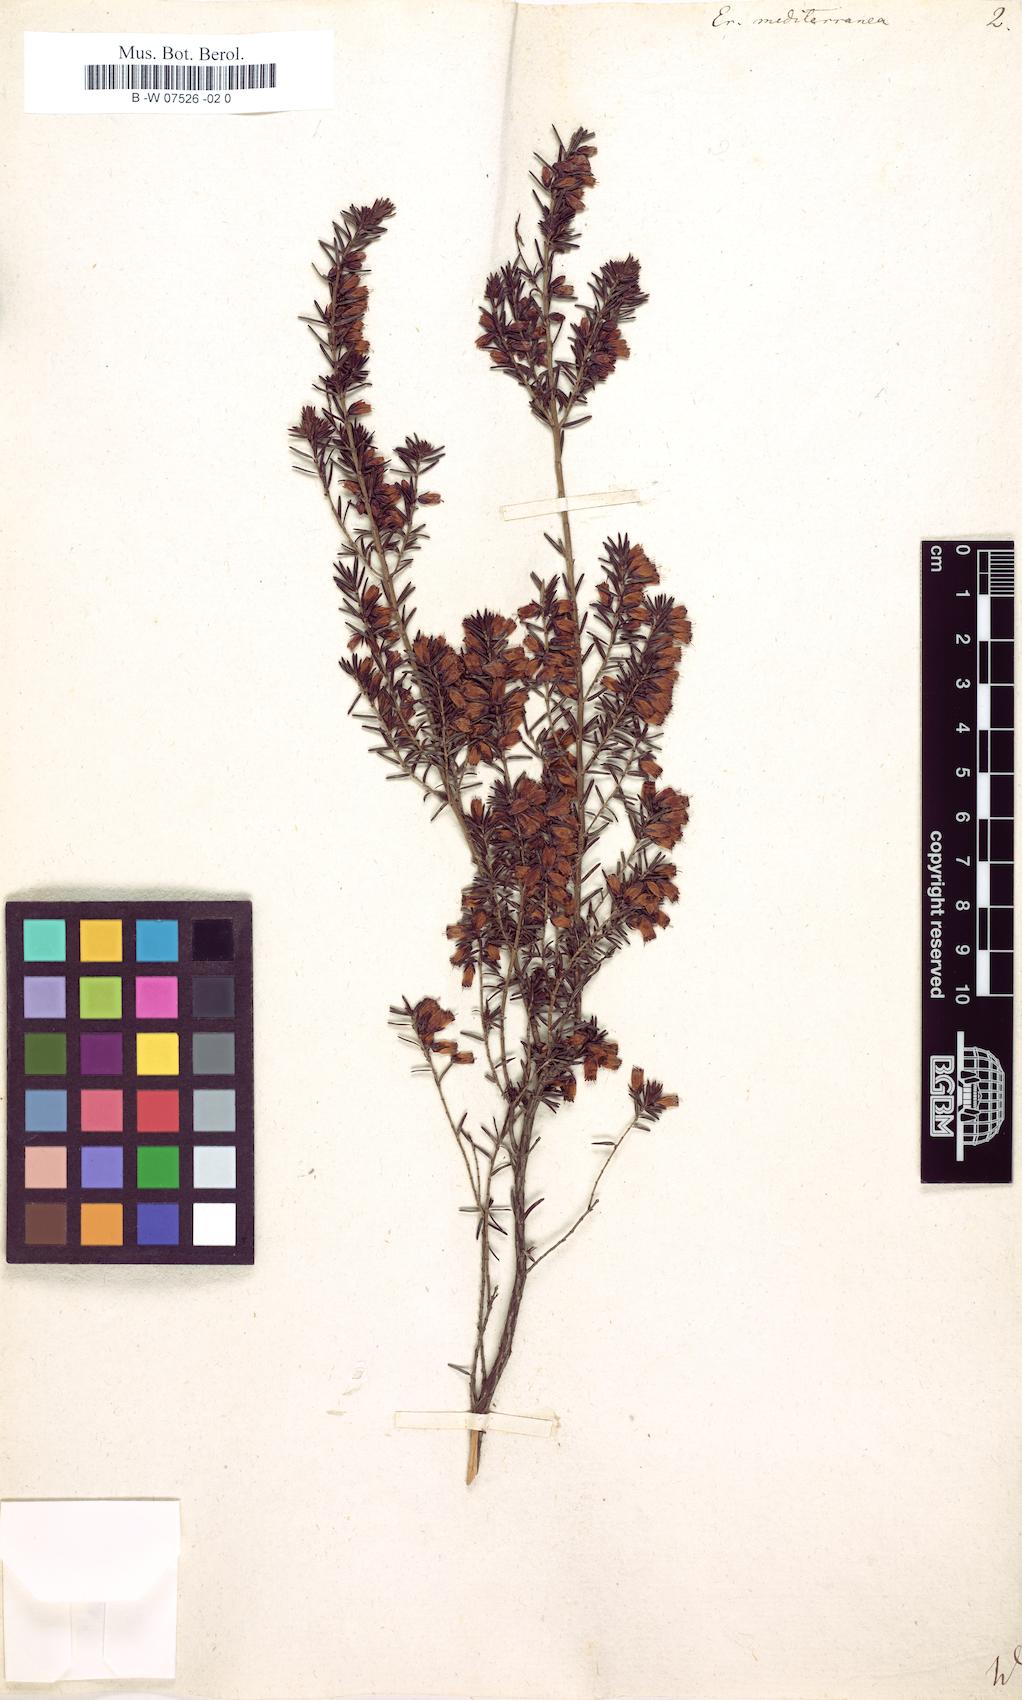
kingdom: Plantae
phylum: Tracheophyta
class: Magnoliopsida
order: Ericales
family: Ericaceae
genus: Erica
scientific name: Erica
